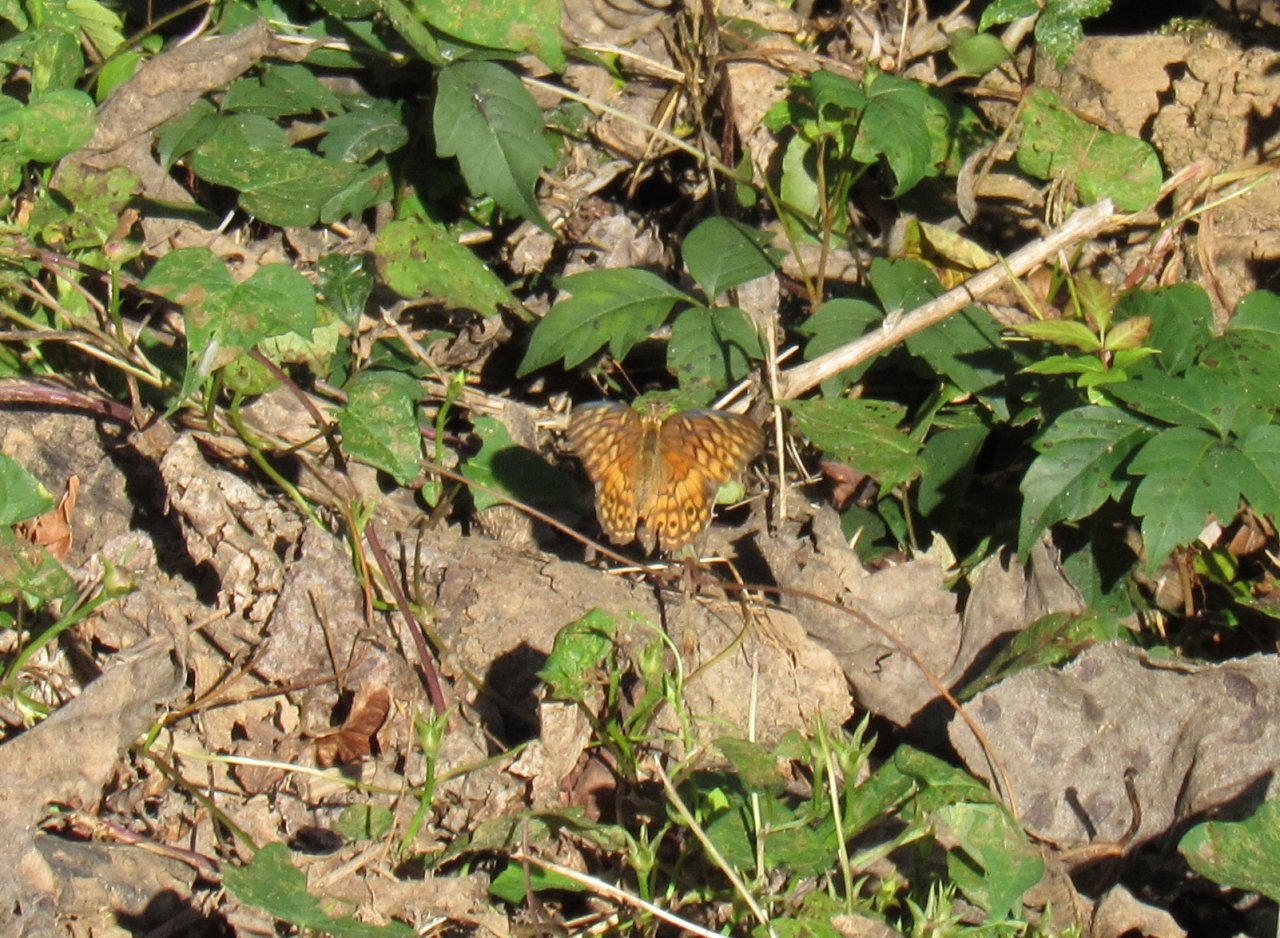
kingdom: Animalia
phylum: Arthropoda
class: Insecta
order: Lepidoptera
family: Nymphalidae
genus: Euptoieta
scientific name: Euptoieta claudia
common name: Variegated Fritillary
